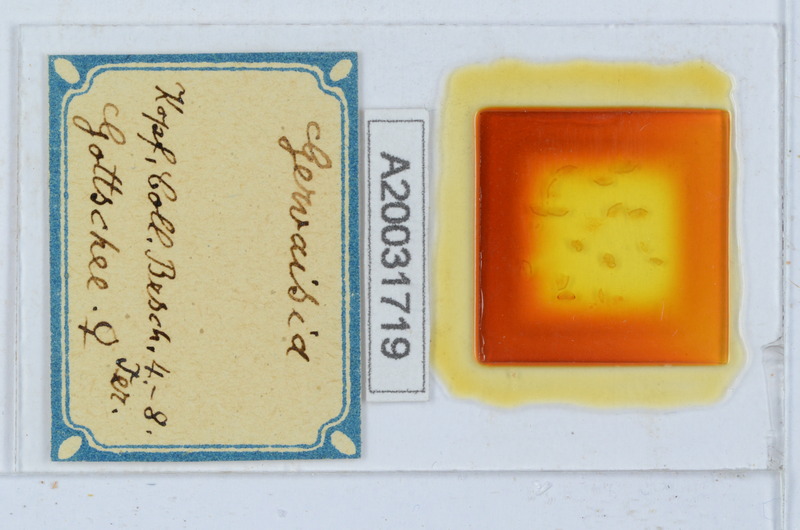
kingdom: Animalia
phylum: Arthropoda
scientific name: Arthropoda
